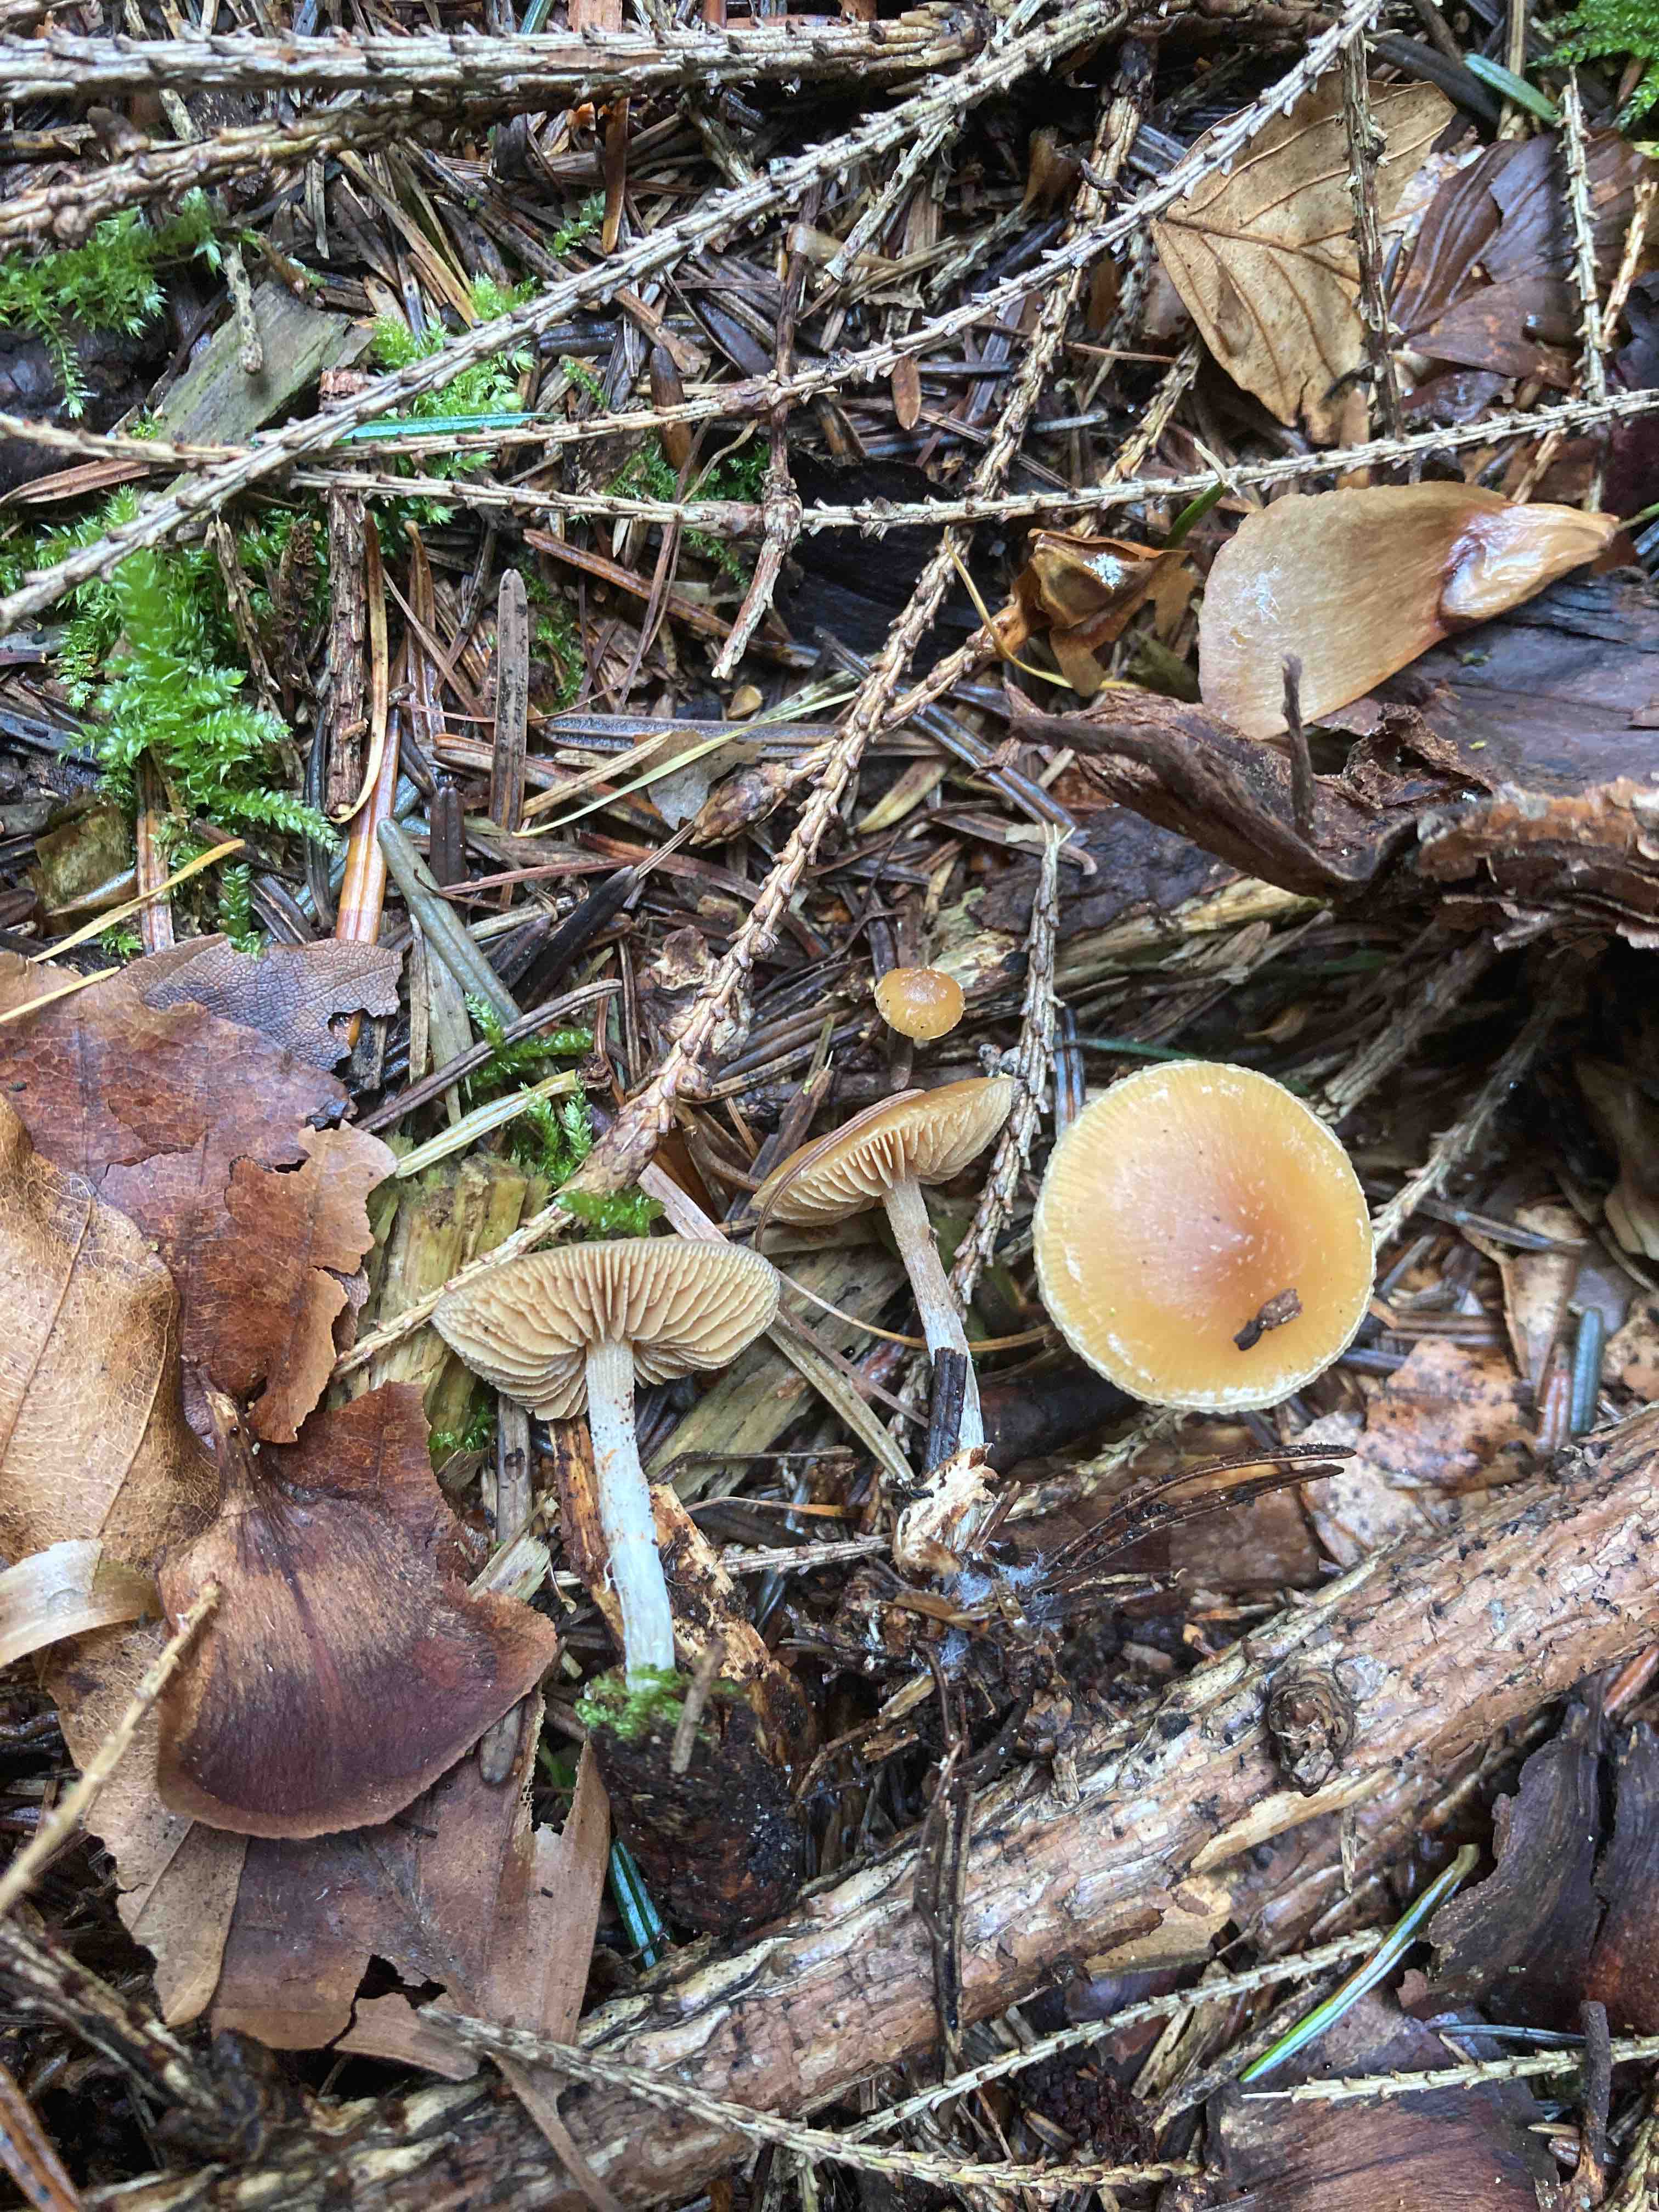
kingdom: Fungi
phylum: Basidiomycota
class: Agaricomycetes
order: Agaricales
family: Hymenogastraceae
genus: Galerina
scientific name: Galerina sideroides
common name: træflis-hjelmhat
